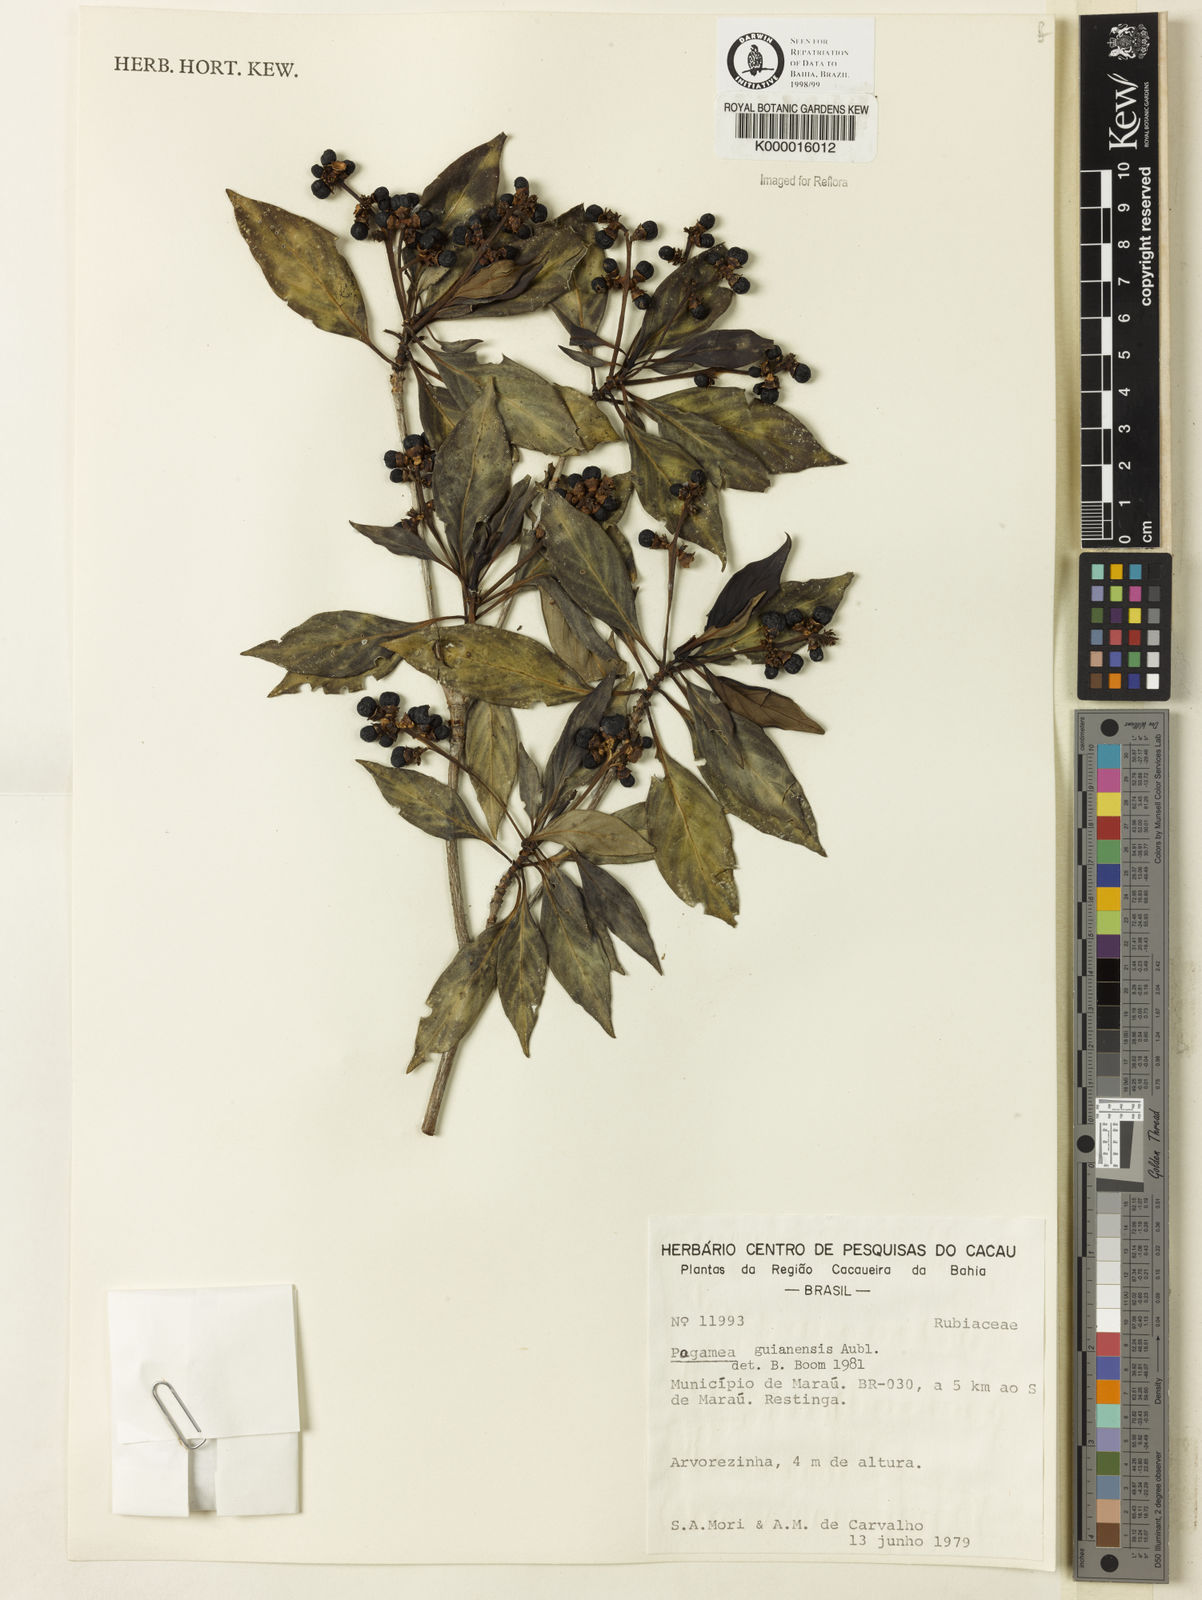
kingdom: Plantae
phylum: Tracheophyta
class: Magnoliopsida
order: Gentianales
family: Rubiaceae
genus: Pagamea
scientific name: Pagamea guianensis
